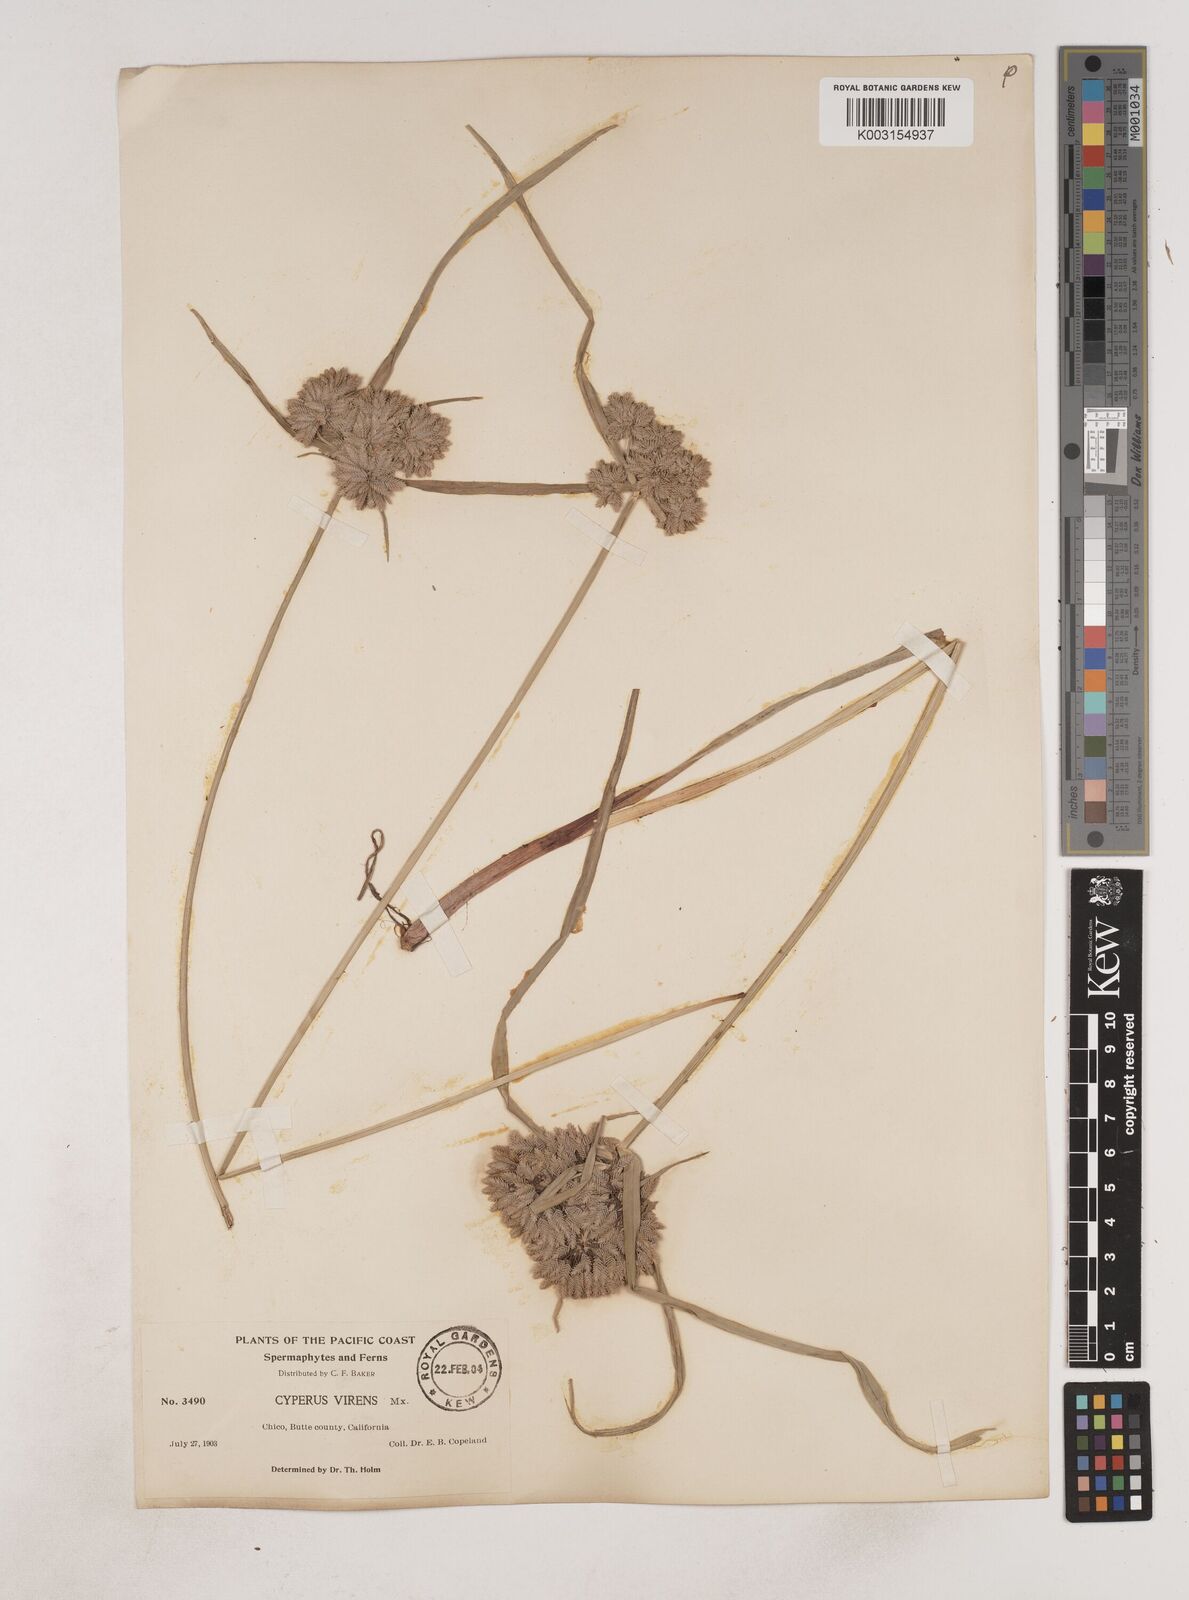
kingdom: Plantae
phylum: Tracheophyta
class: Liliopsida
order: Poales
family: Cyperaceae
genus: Cyperus
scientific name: Cyperus eragrostis
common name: Tall flatsedge
